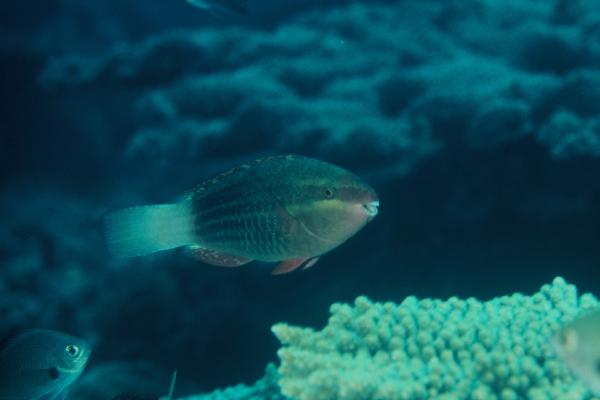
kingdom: Animalia
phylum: Chordata
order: Perciformes
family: Scaridae
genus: Scarus
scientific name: Scarus frenatus
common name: Bridled parrotfish
